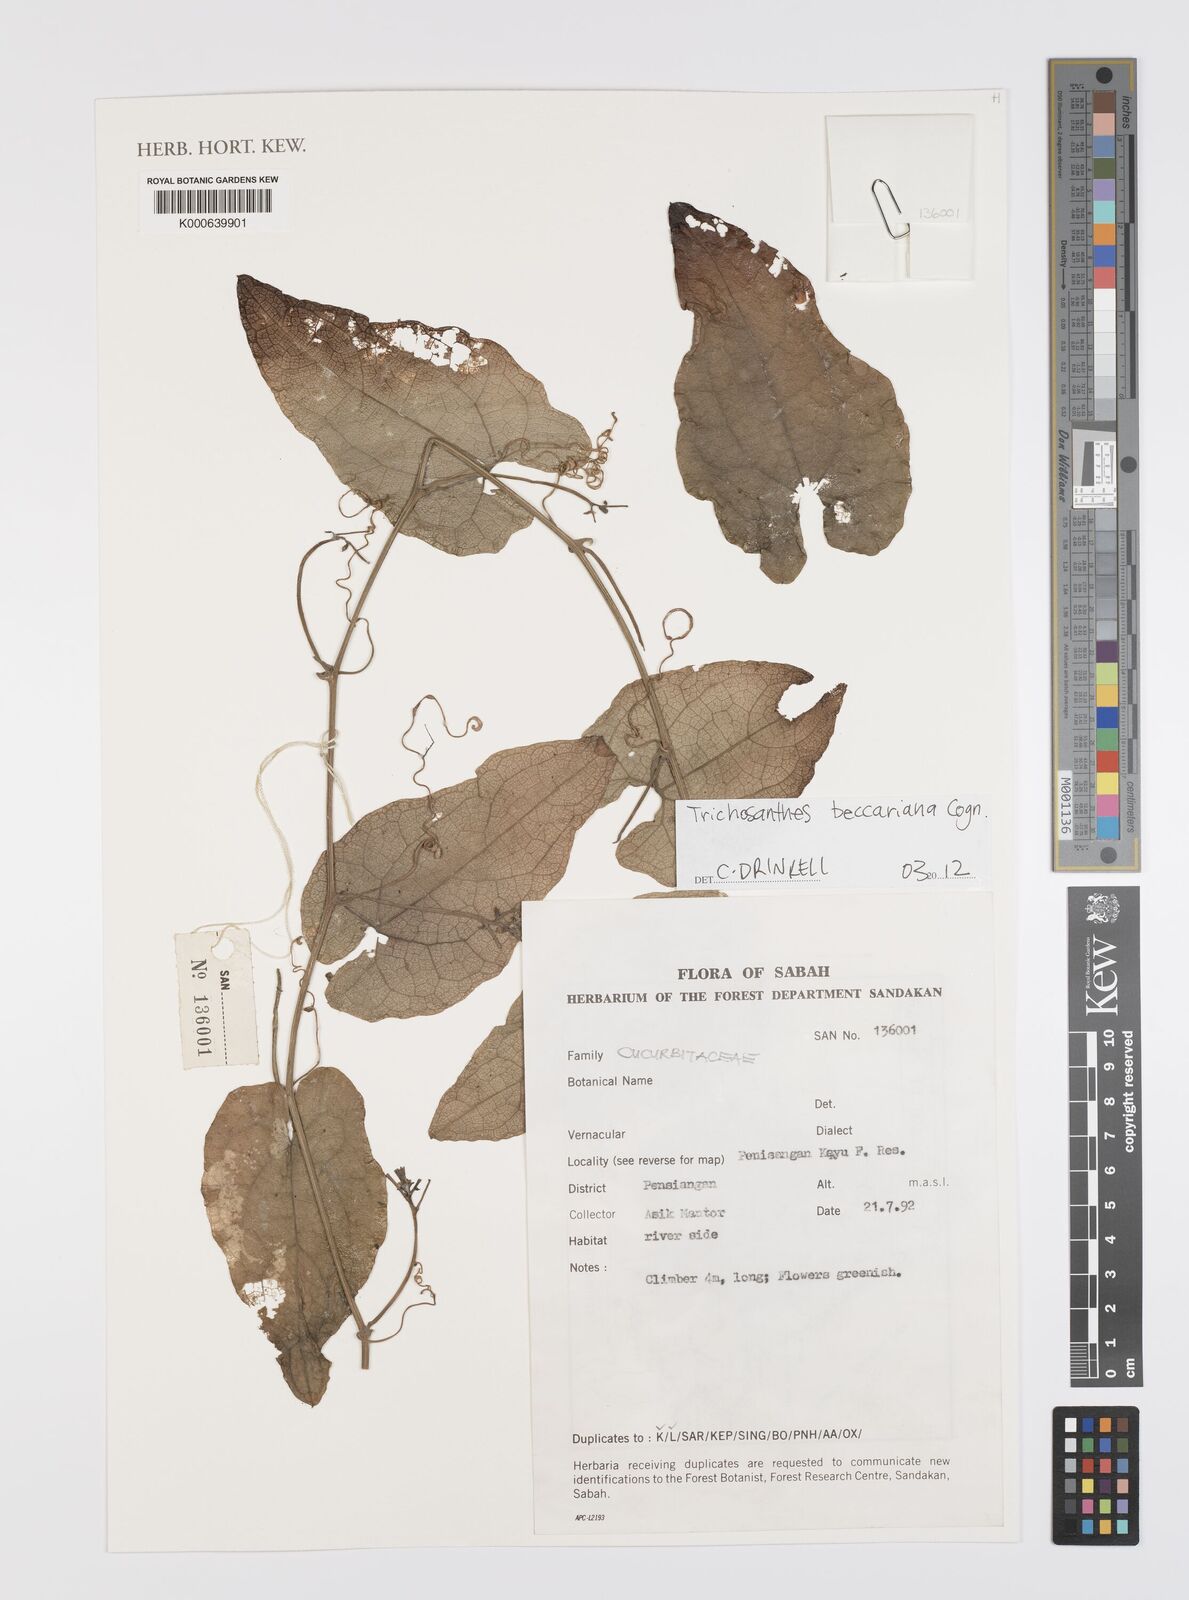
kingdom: Plantae
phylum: Tracheophyta
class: Magnoliopsida
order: Cucurbitales
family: Cucurbitaceae
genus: Trichosanthes
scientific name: Trichosanthes beccariana
